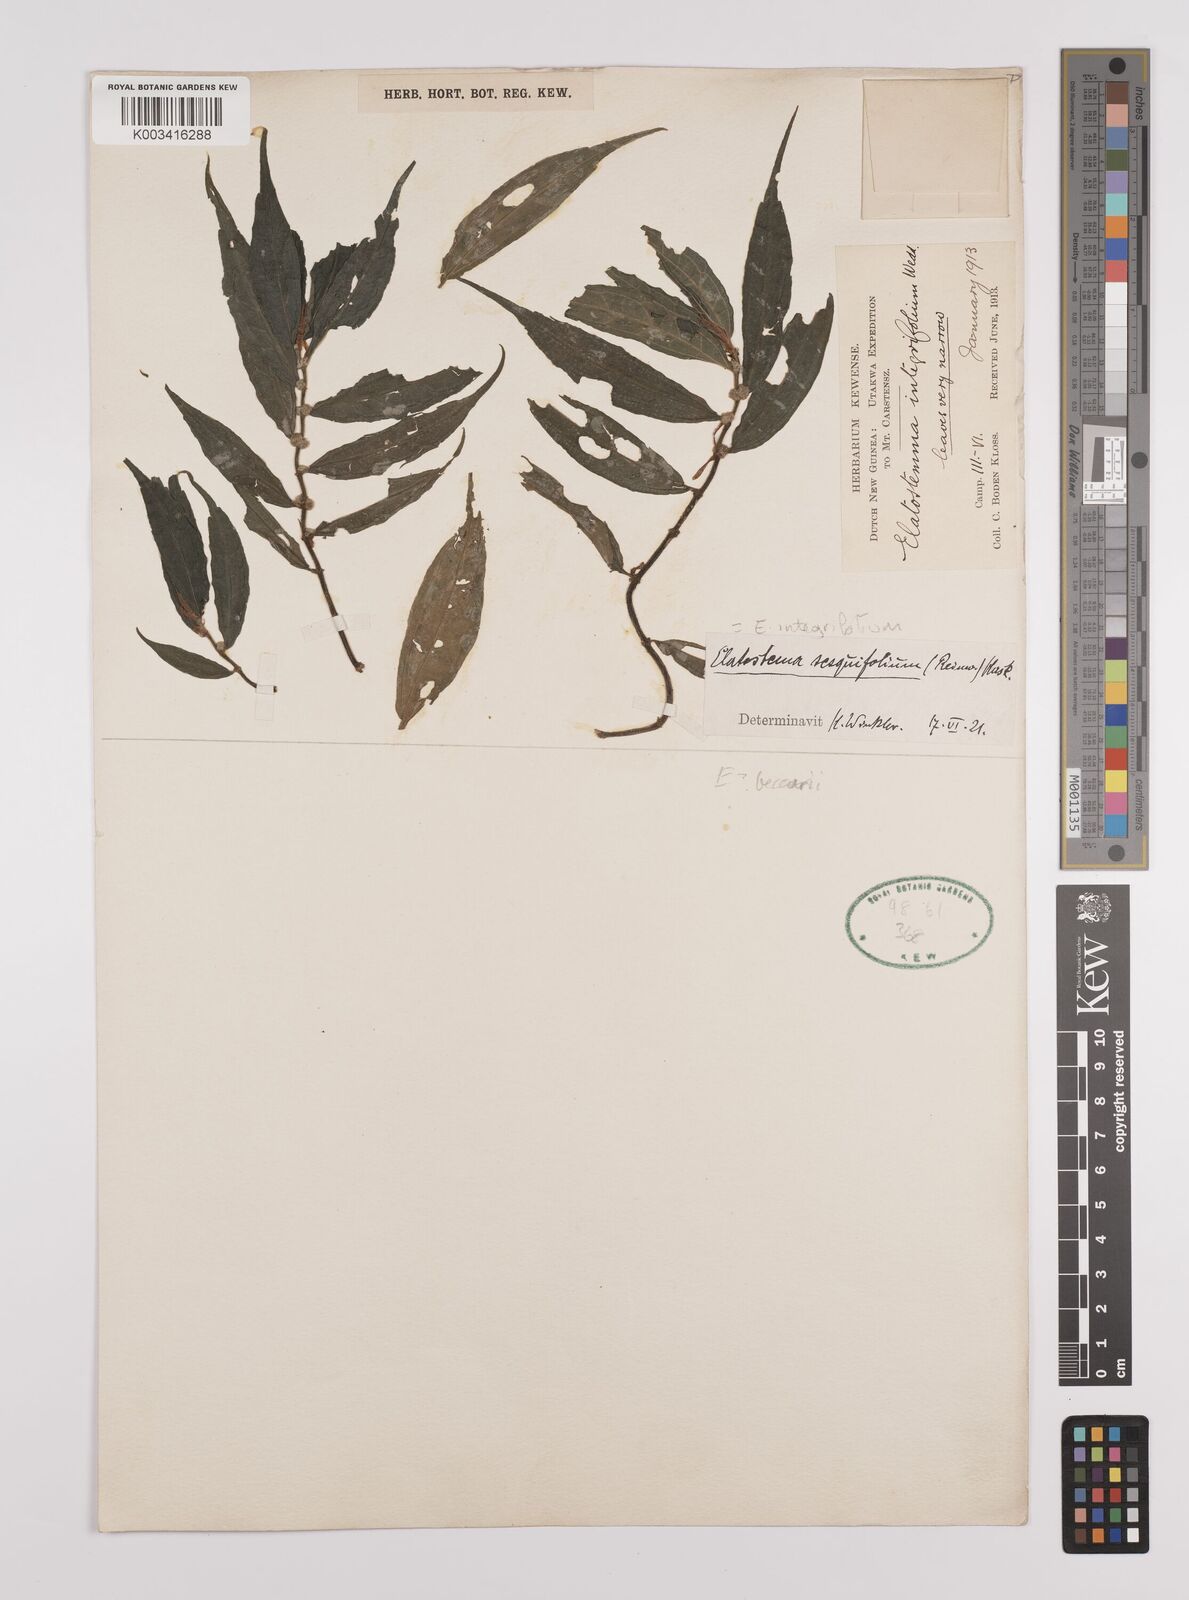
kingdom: Plantae
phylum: Tracheophyta
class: Magnoliopsida
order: Rosales
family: Urticaceae
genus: Elatostema
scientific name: Elatostema integrifolium
